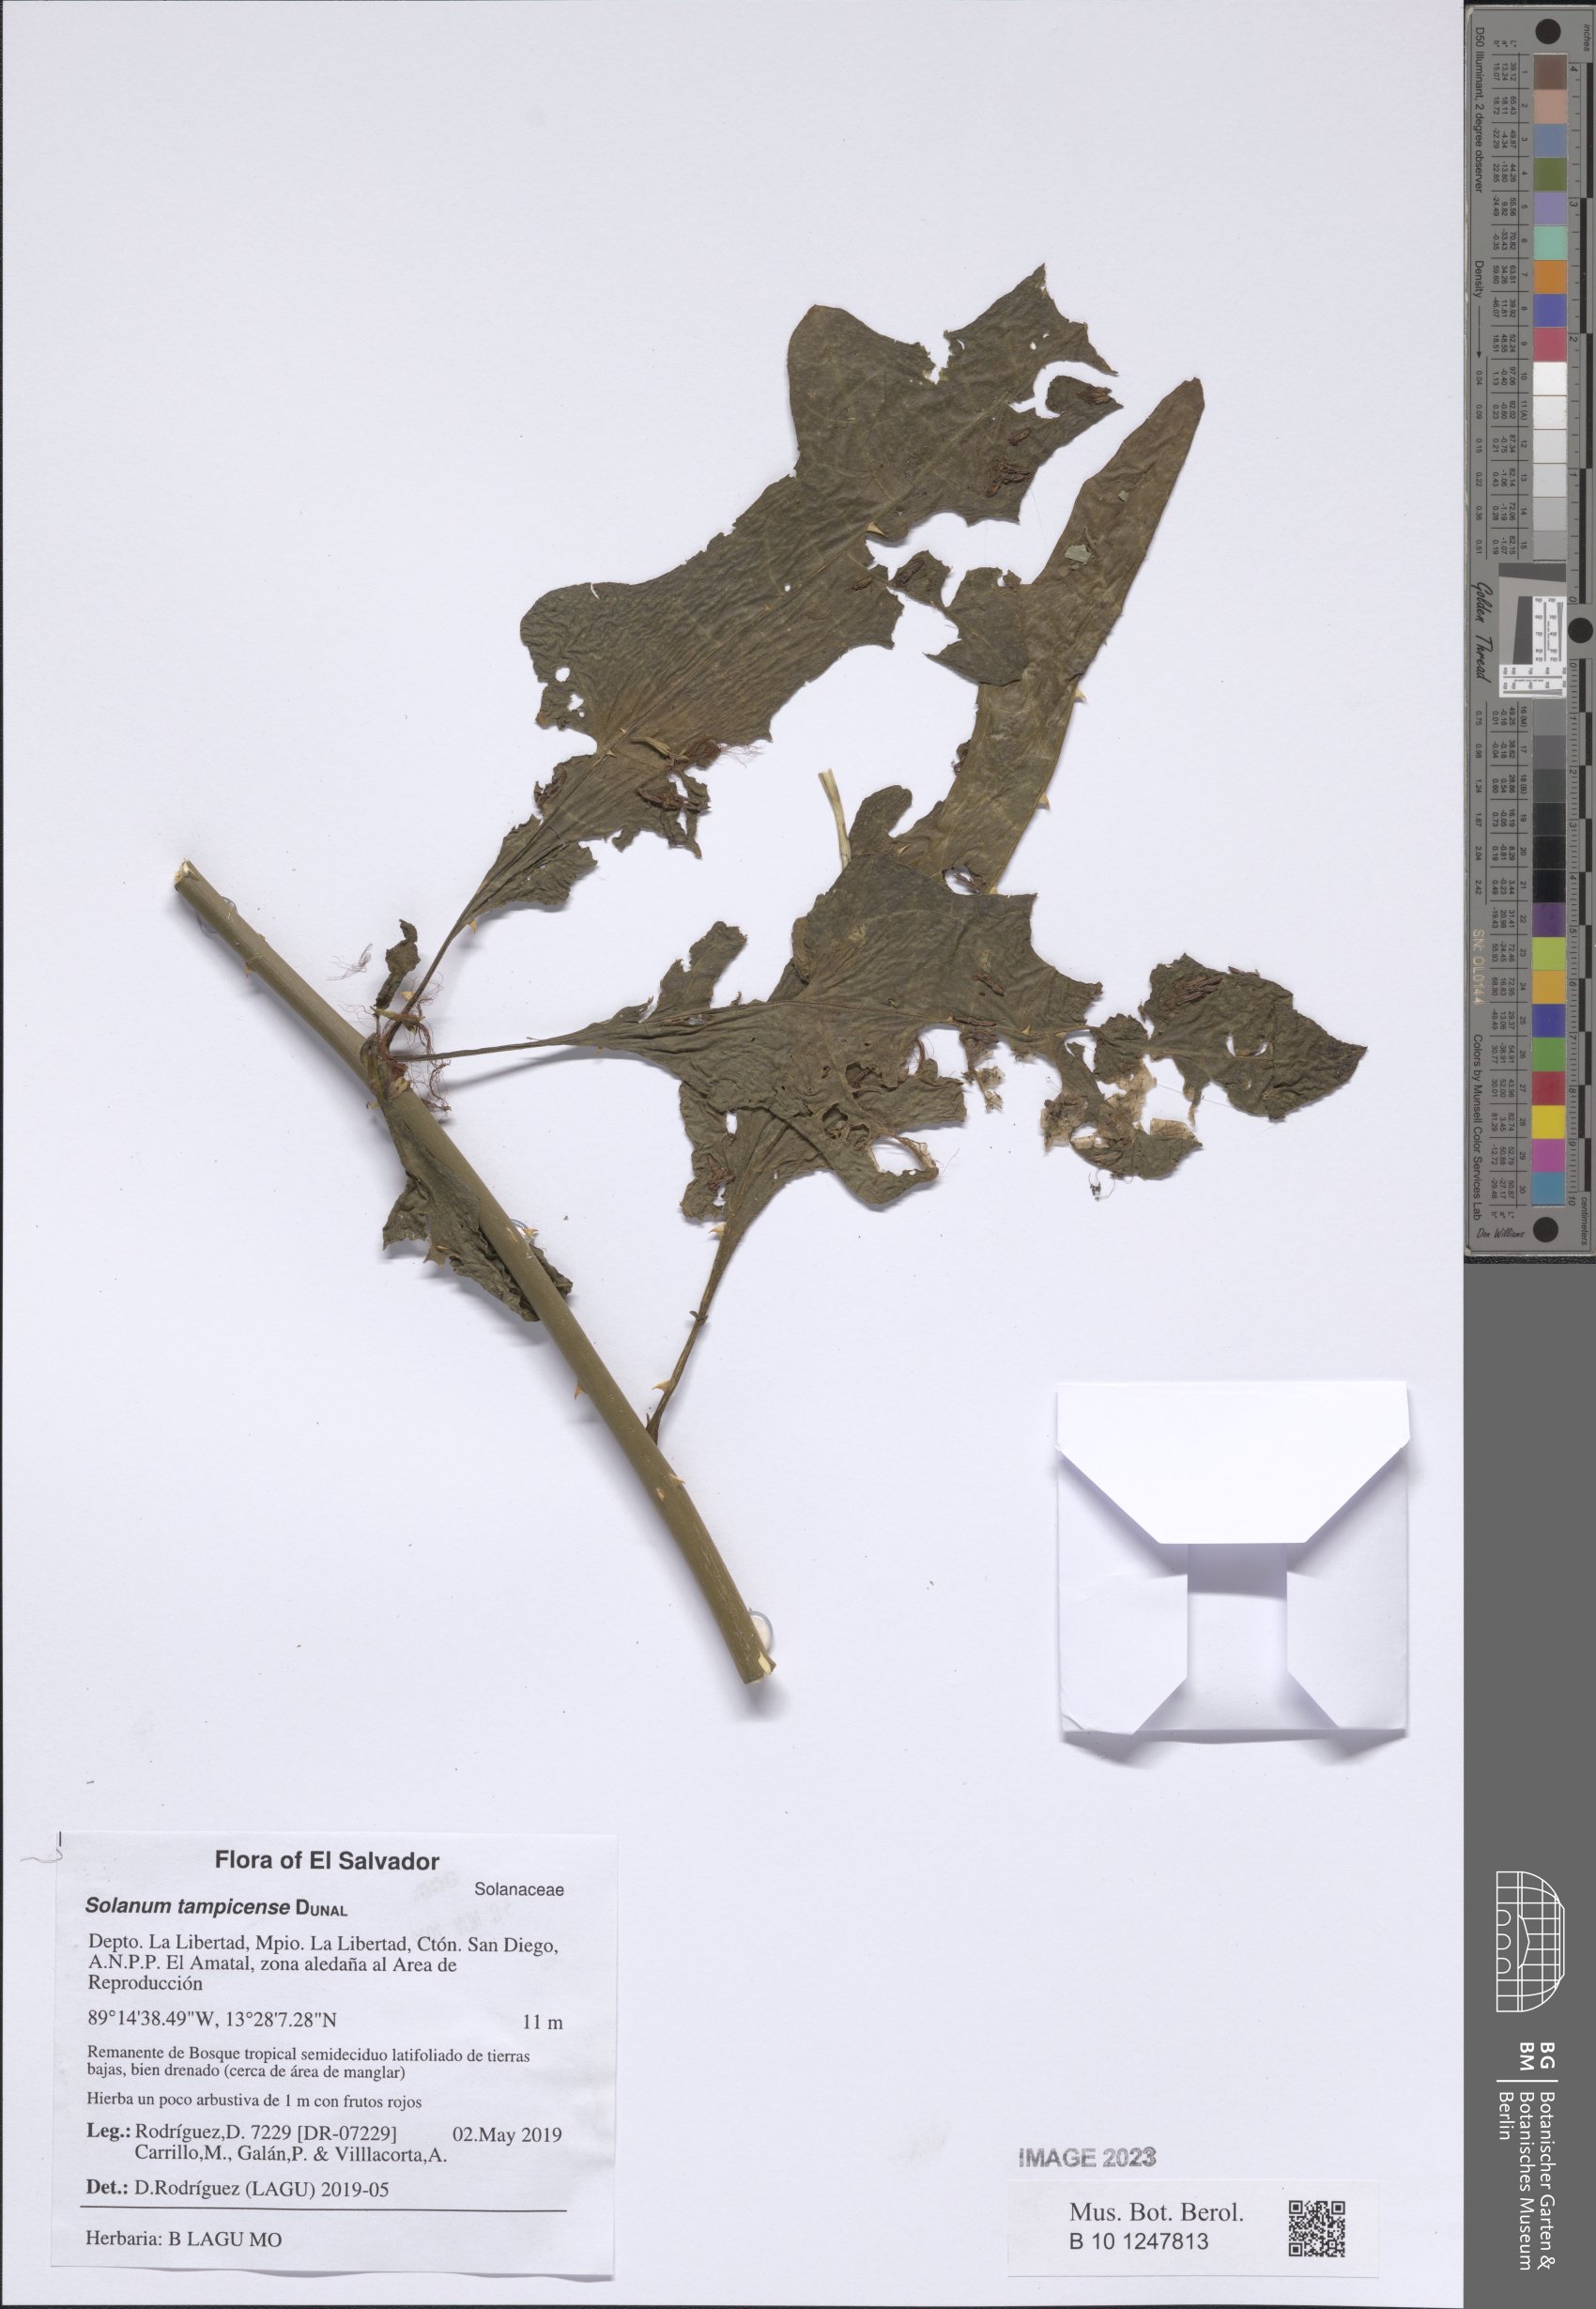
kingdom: Plantae
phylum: Tracheophyta
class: Magnoliopsida
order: Solanales
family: Solanaceae
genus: Solanum
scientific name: Solanum tampicense
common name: Scrambling nightshade
